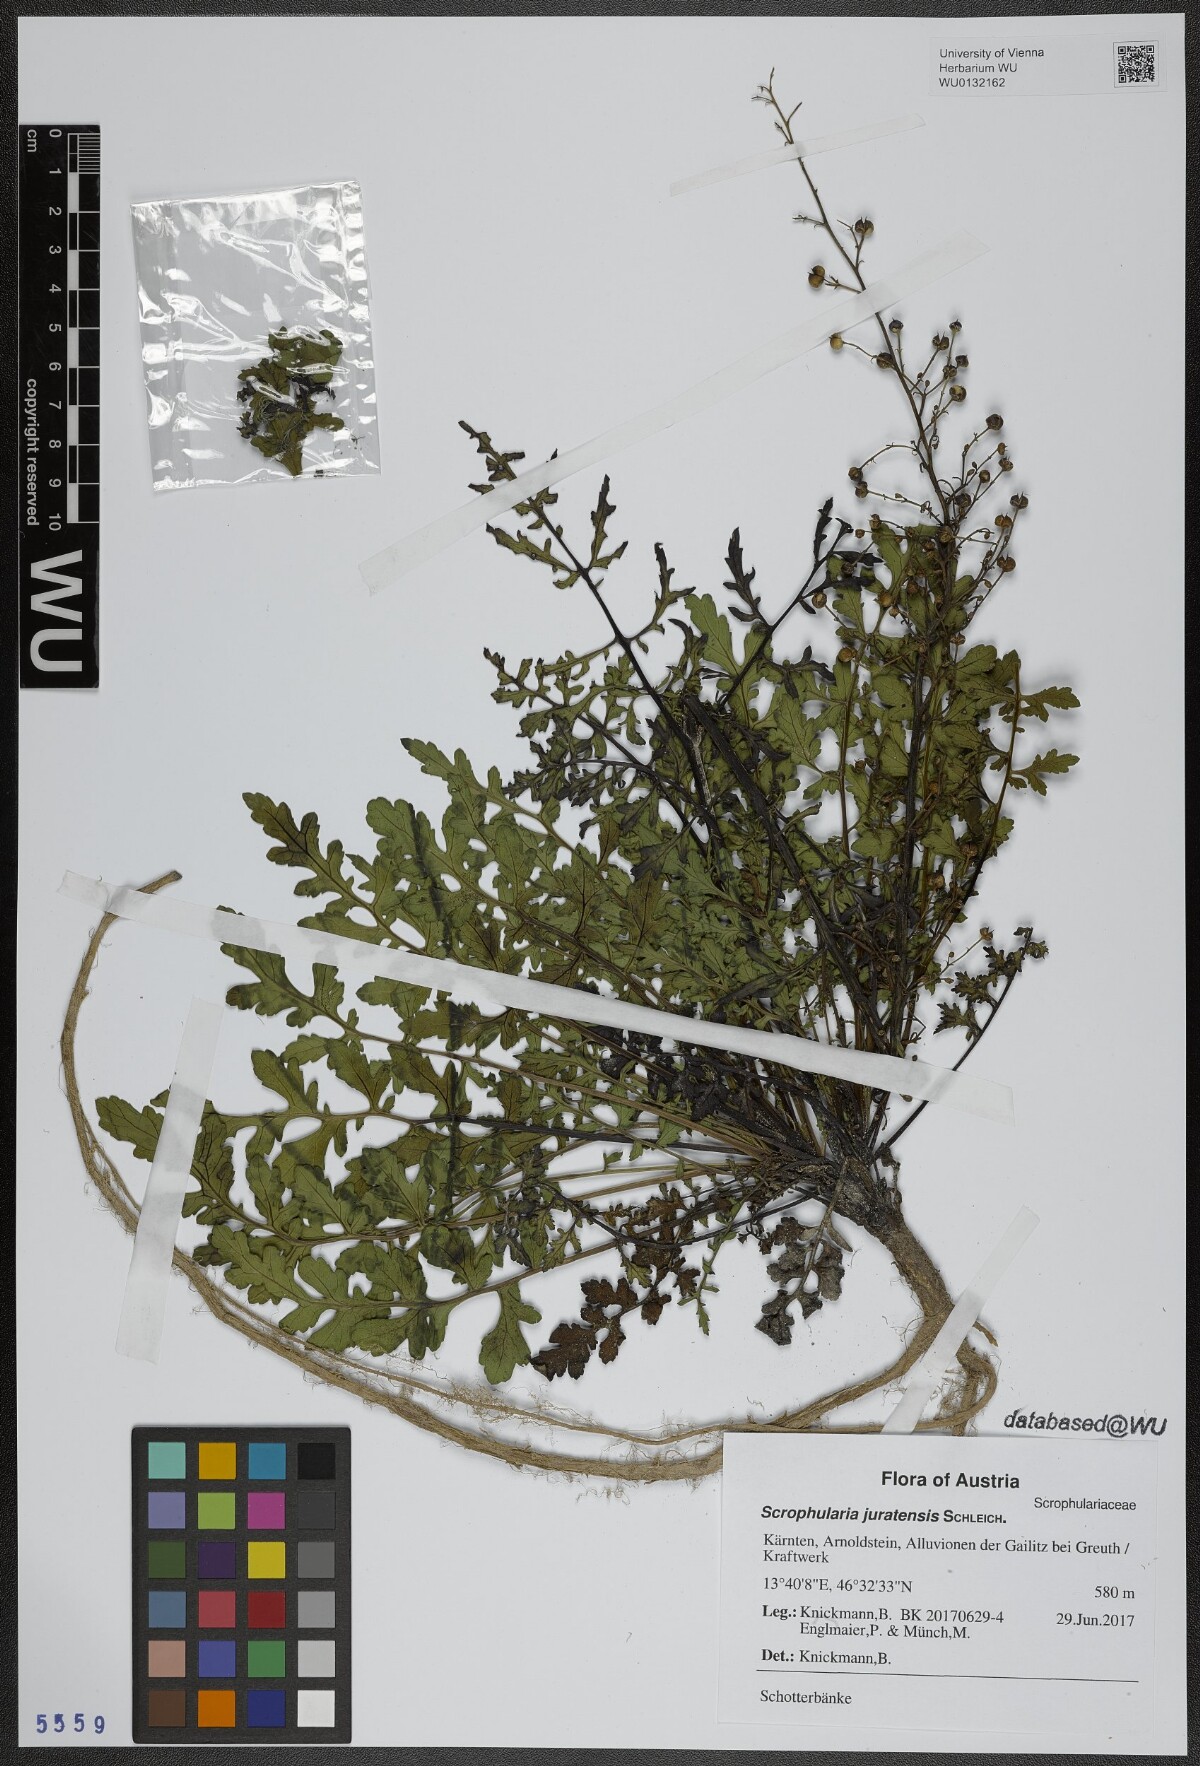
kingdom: Plantae
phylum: Tracheophyta
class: Magnoliopsida
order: Lamiales
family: Scrophulariaceae
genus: Scrophularia
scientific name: Scrophularia canina
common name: French figwort
